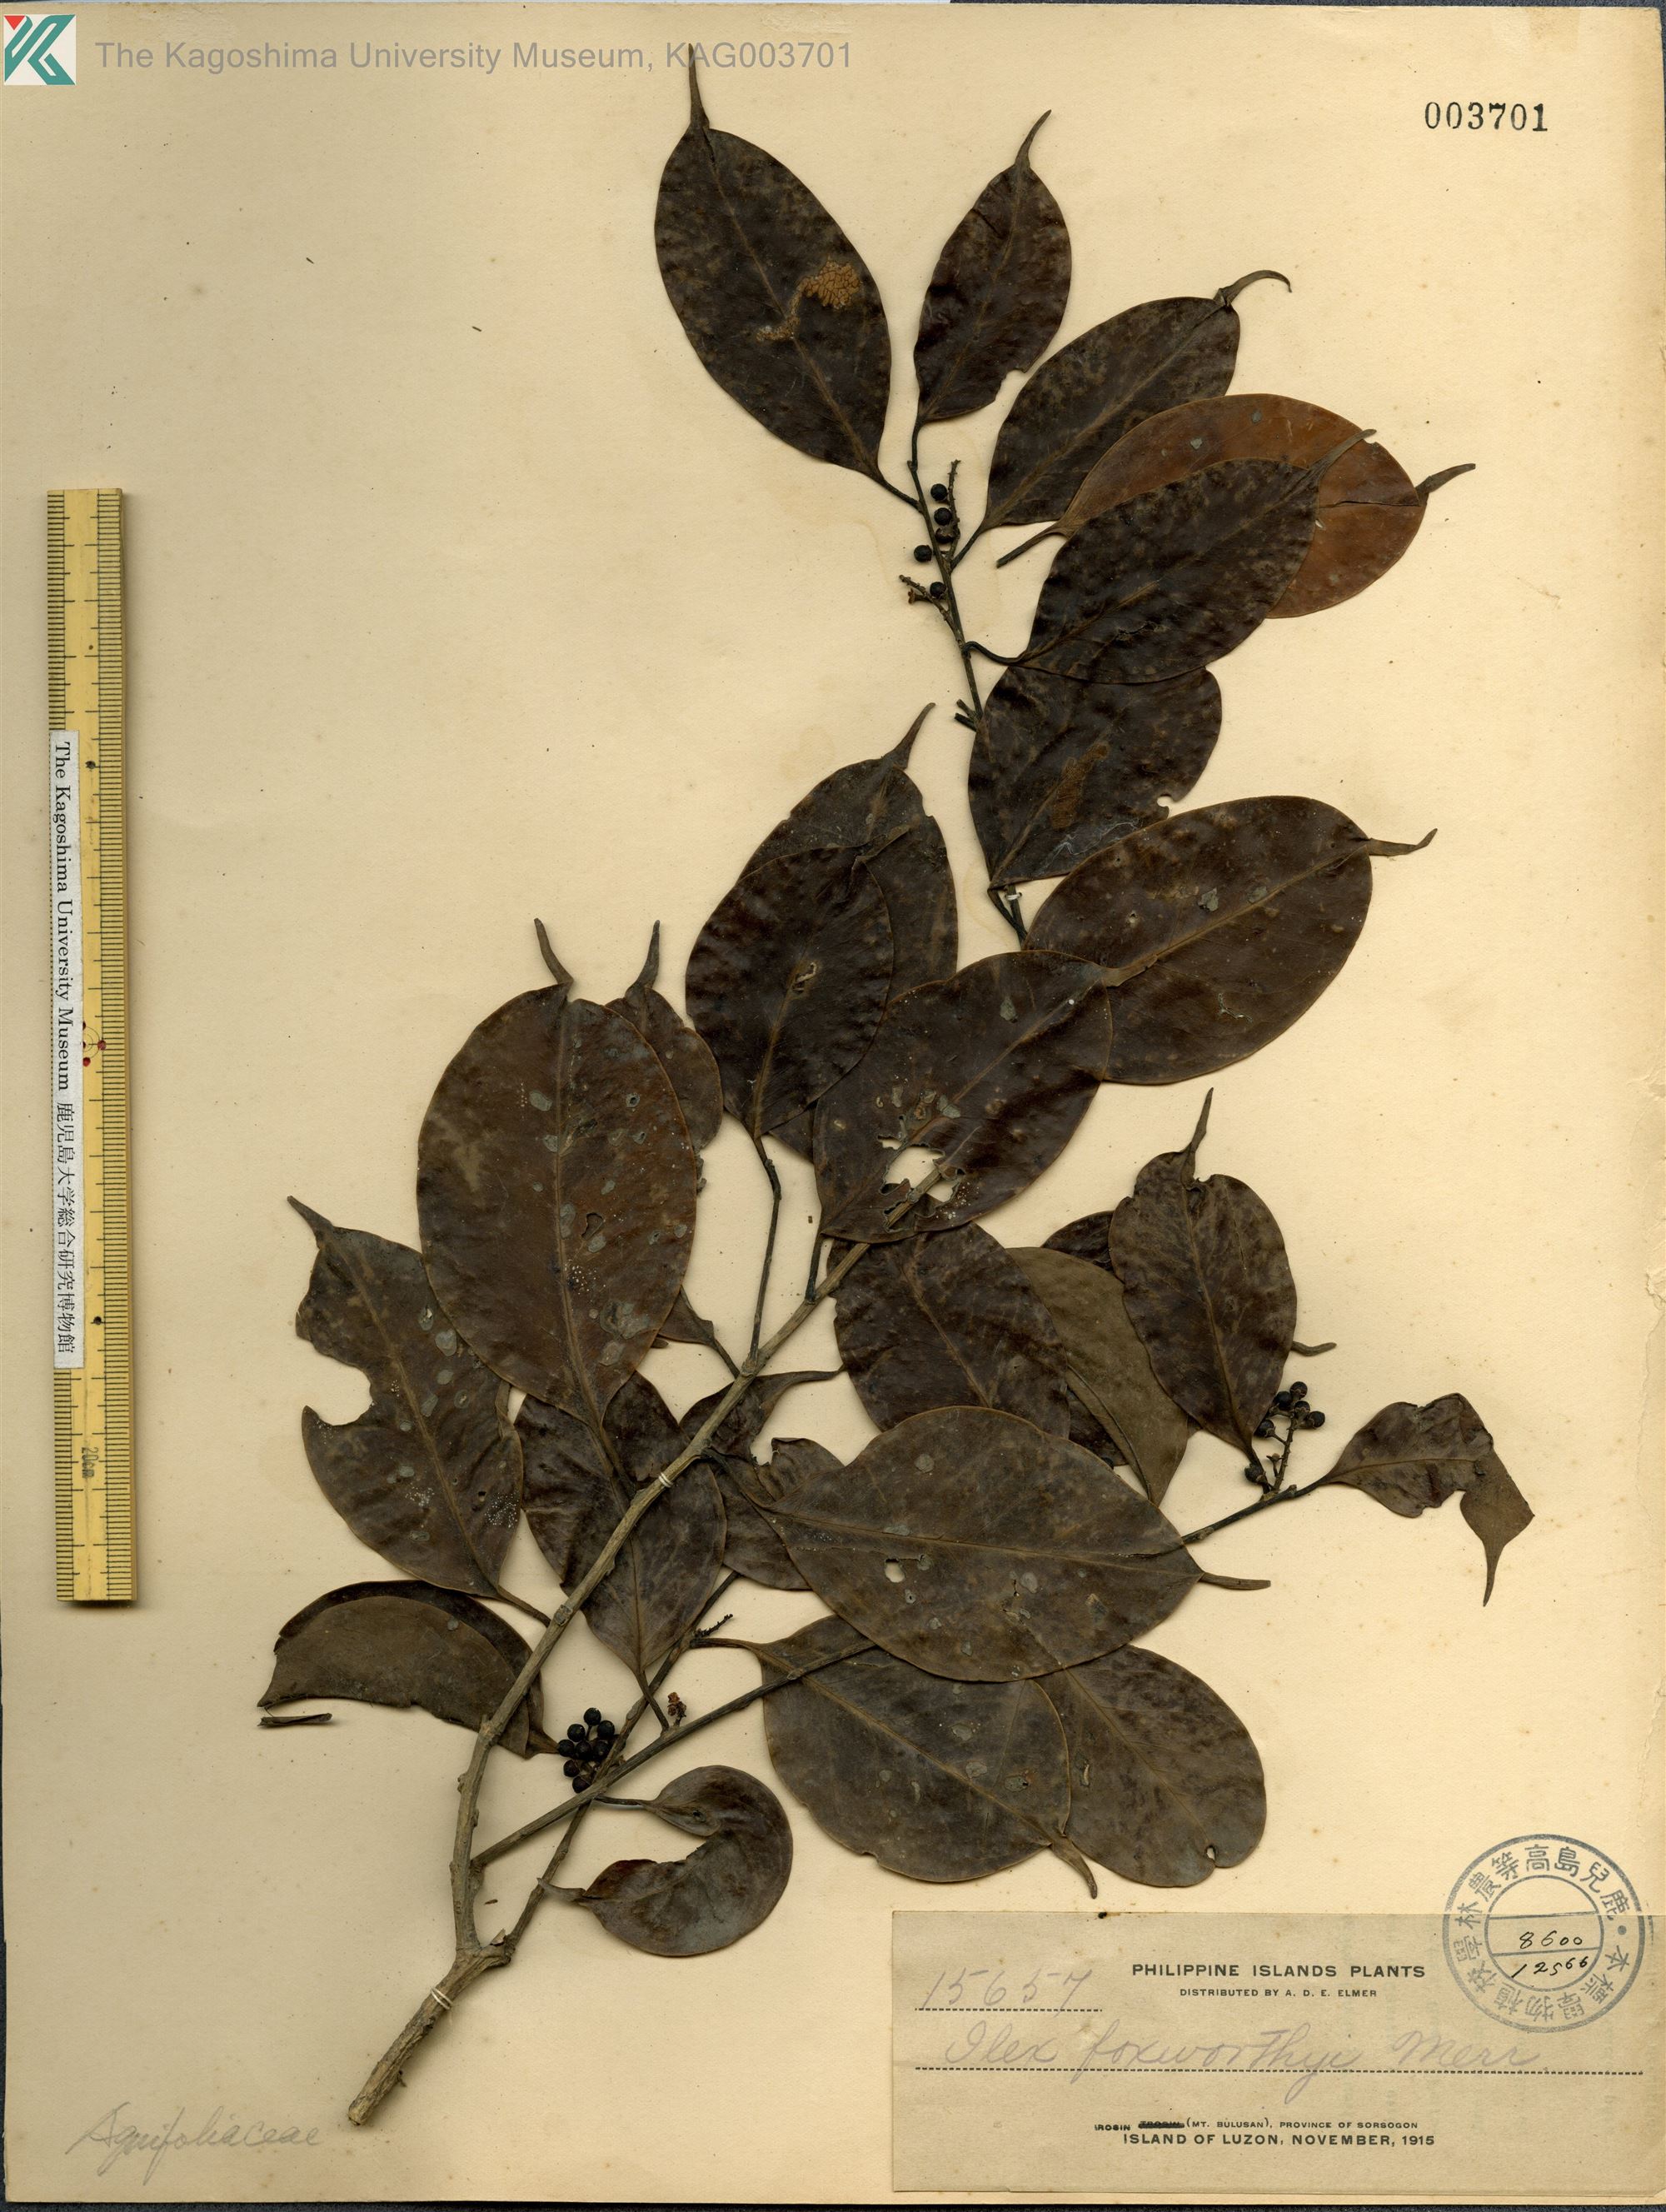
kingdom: Plantae
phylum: Tracheophyta
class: Magnoliopsida
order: Aquifoliales
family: Aquifoliaceae
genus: Ilex
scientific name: Ilex malaccensis
